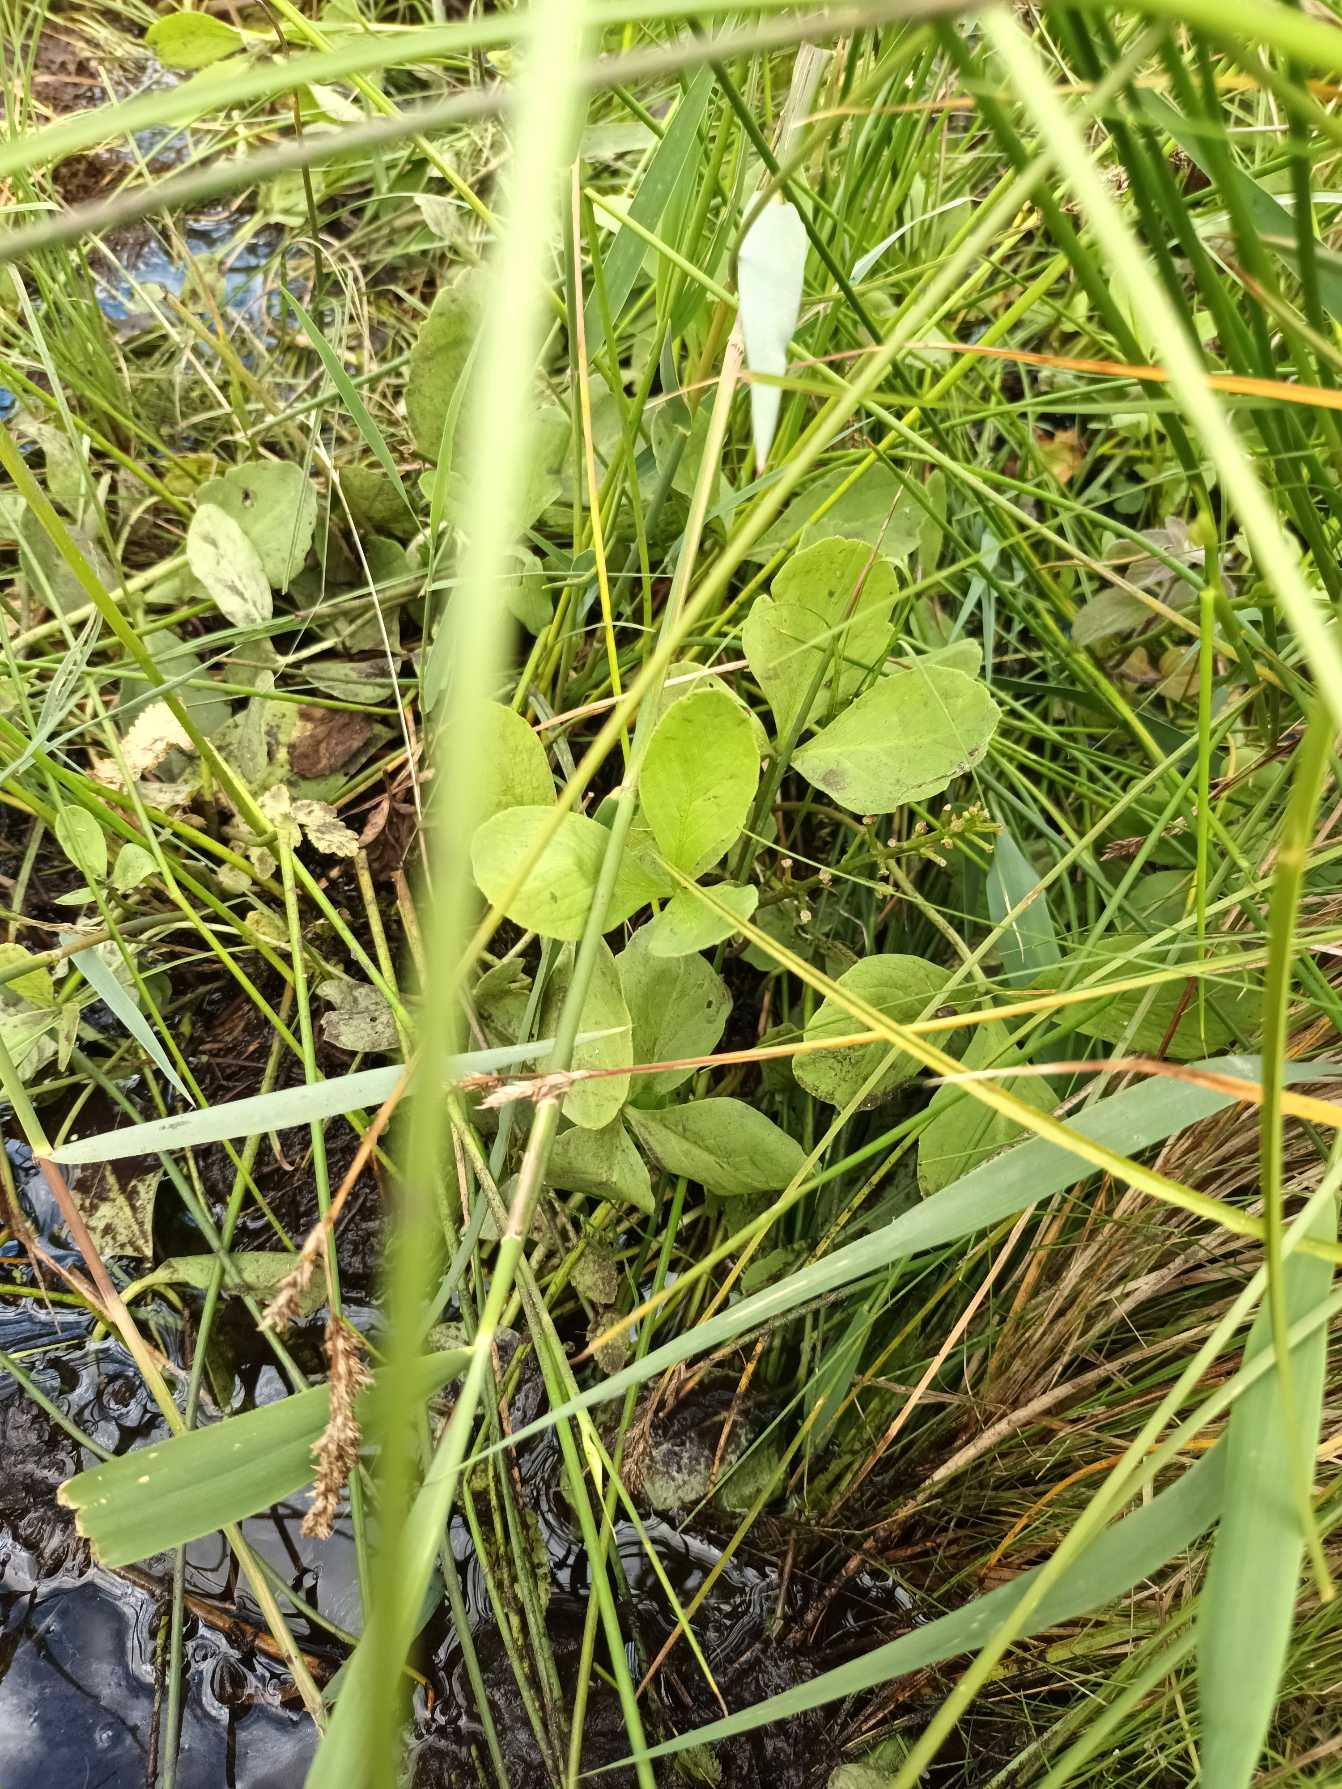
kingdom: Plantae
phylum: Tracheophyta
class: Magnoliopsida
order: Asterales
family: Menyanthaceae
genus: Menyanthes
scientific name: Menyanthes trifoliata
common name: Bukkeblad
